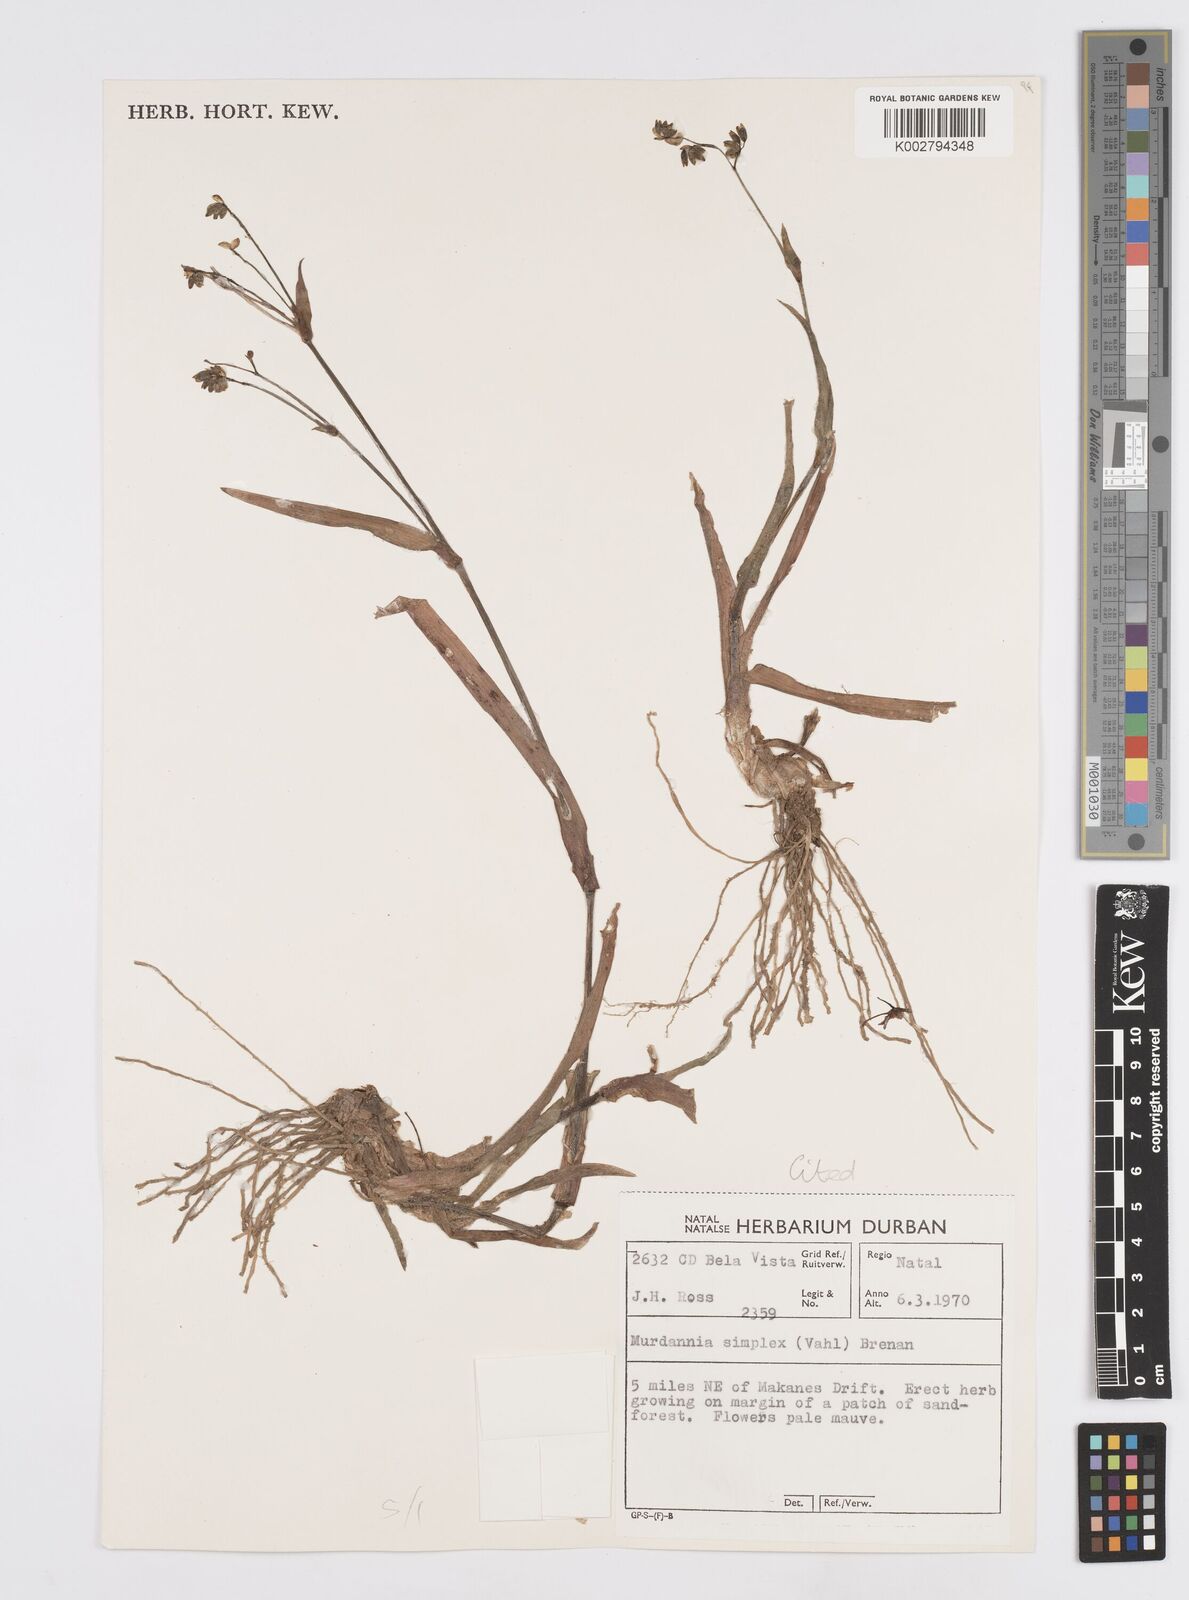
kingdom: Plantae
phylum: Tracheophyta
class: Liliopsida
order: Commelinales
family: Commelinaceae
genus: Murdannia
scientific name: Murdannia simplex
